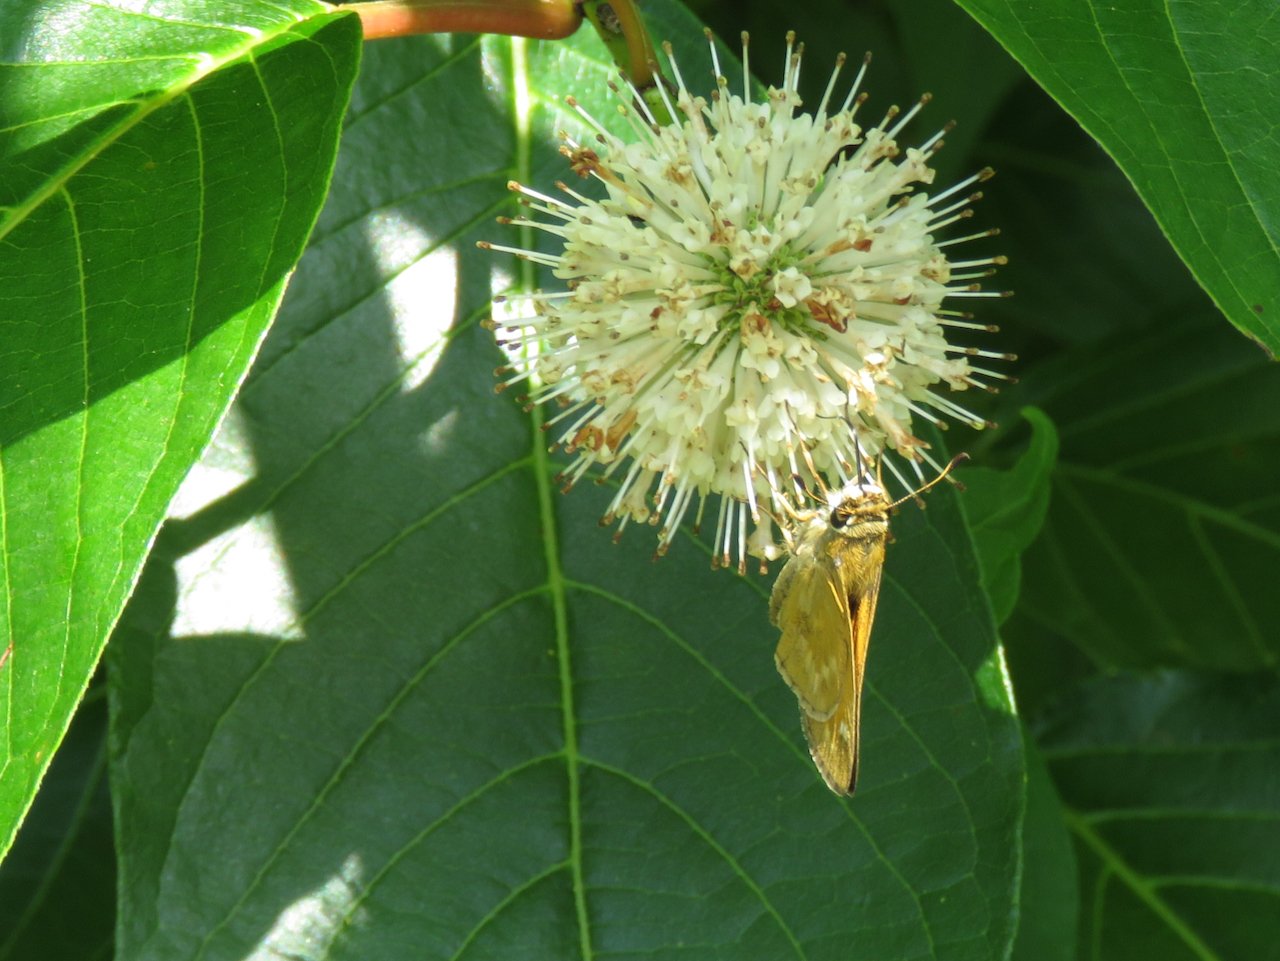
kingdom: Animalia
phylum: Arthropoda
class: Insecta
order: Lepidoptera
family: Hesperiidae
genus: Atalopedes
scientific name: Atalopedes campestris
